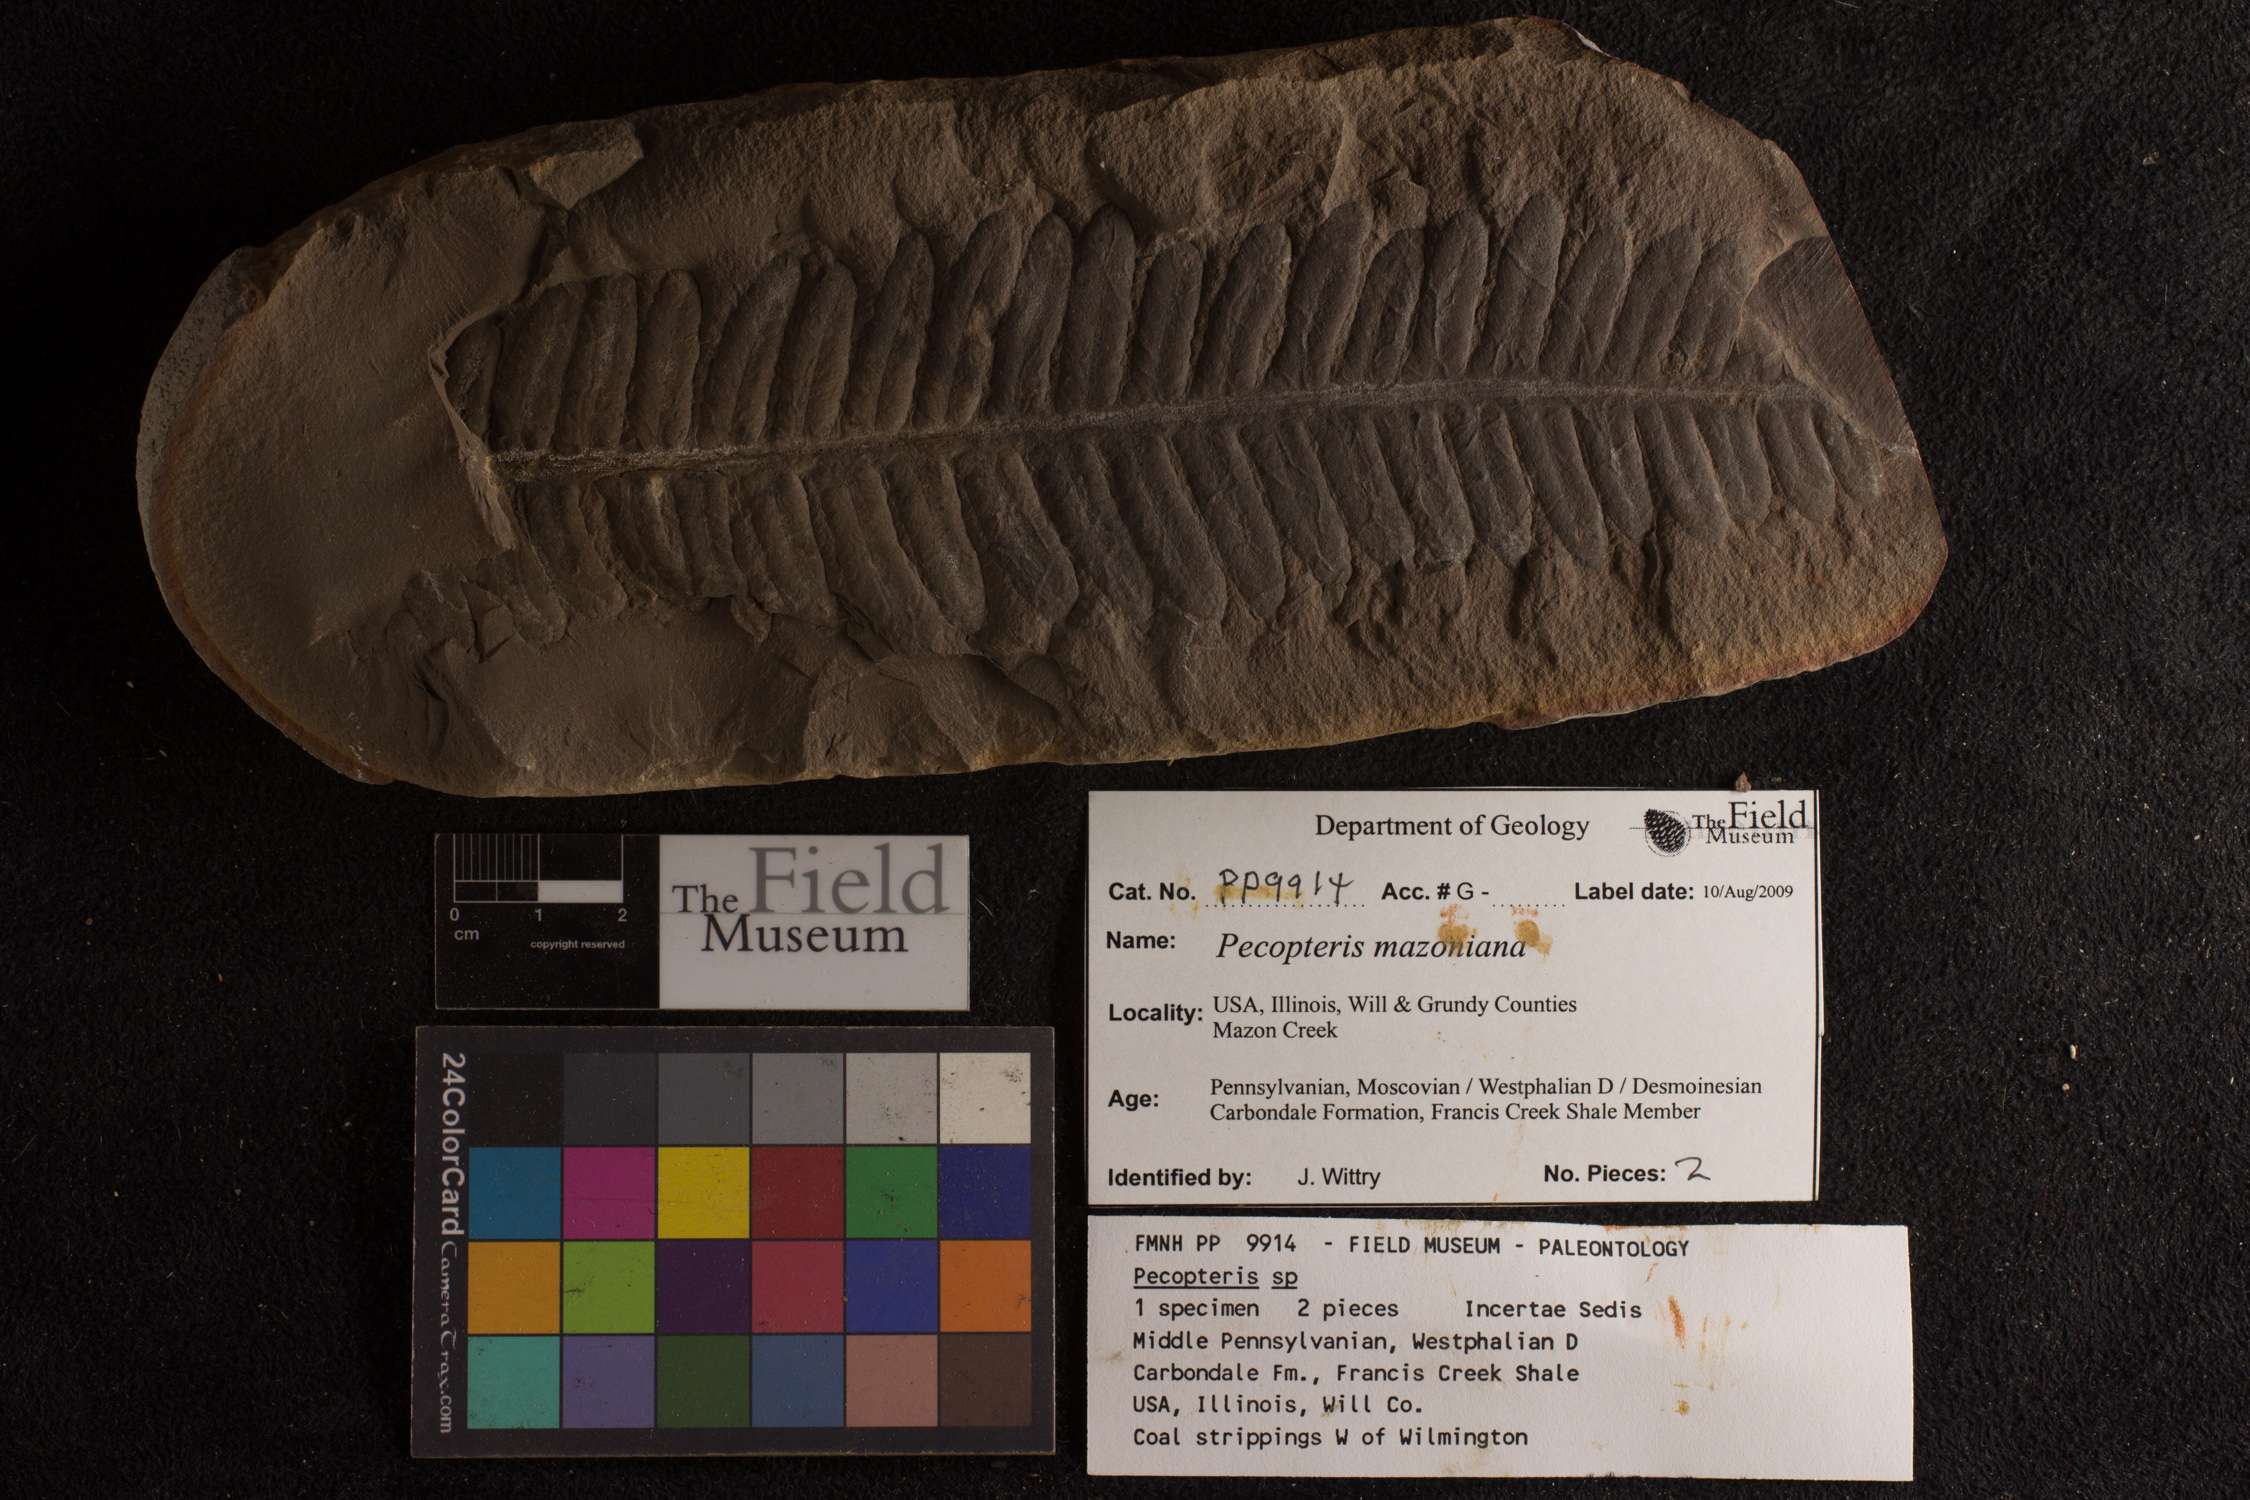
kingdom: Plantae
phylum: Tracheophyta
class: Polypodiopsida
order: Marattiales
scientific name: Marattiales
